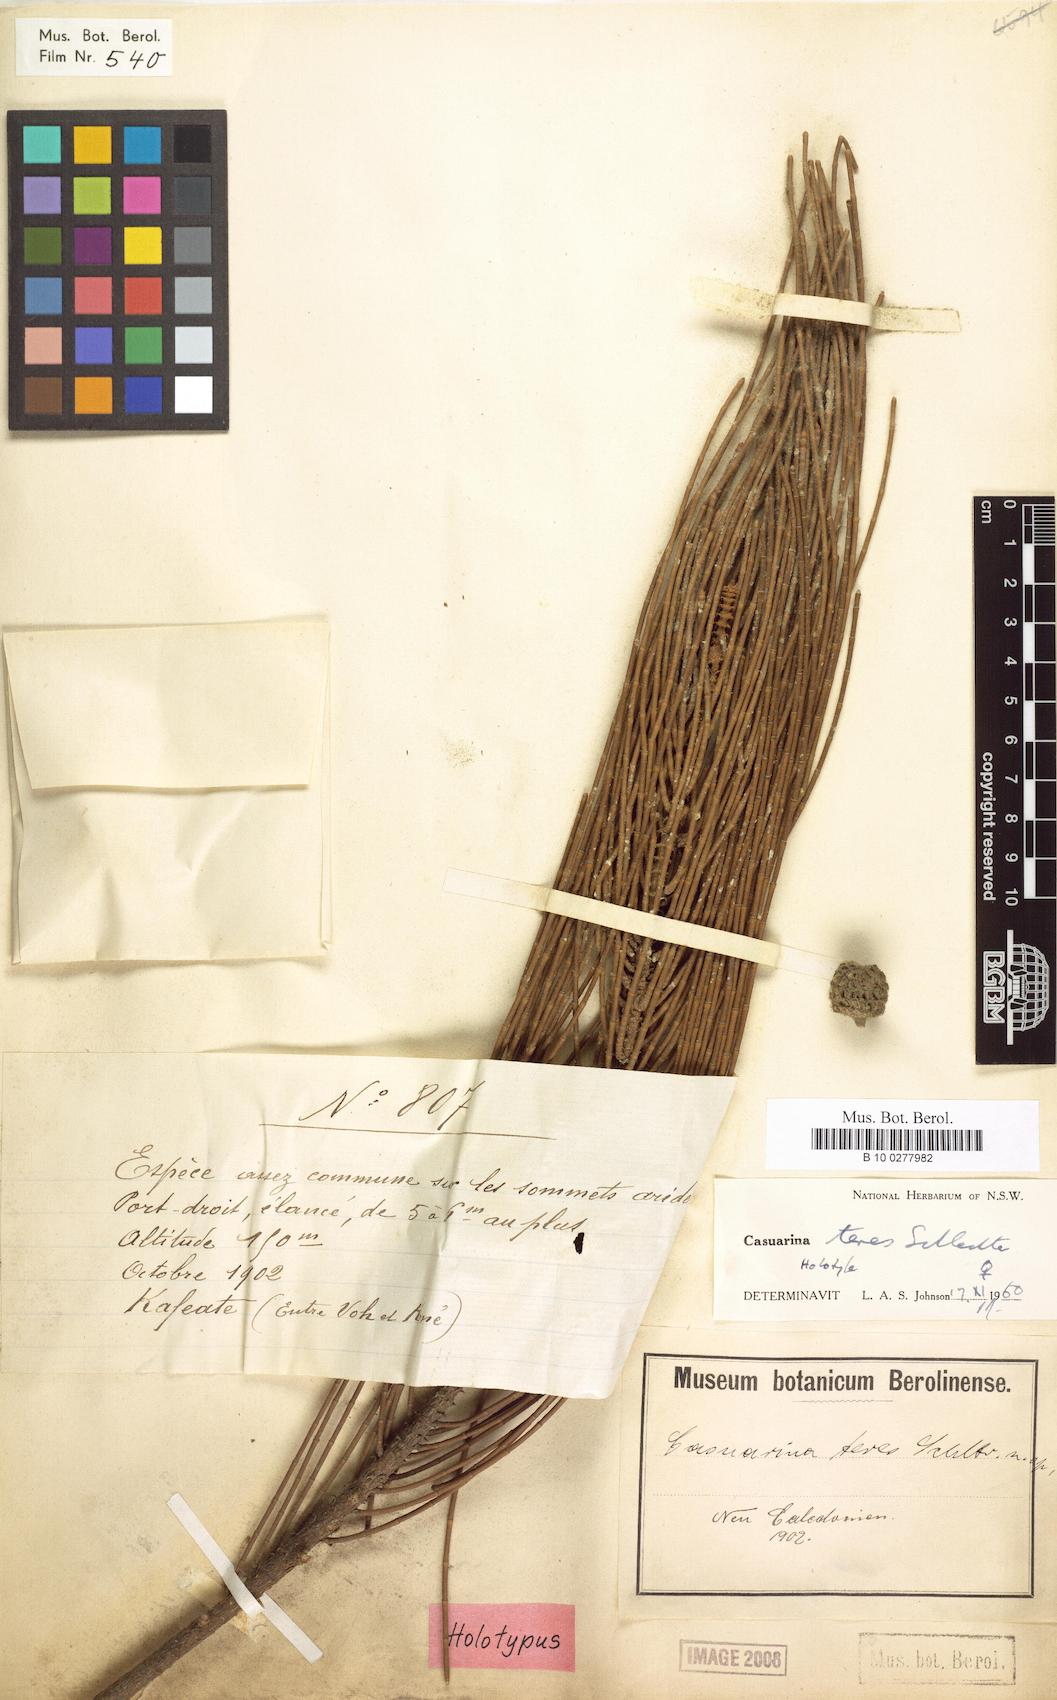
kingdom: Plantae
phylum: Tracheophyta
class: Magnoliopsida
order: Fagales
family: Casuarinaceae
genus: Casuarina
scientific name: Casuarina teres
